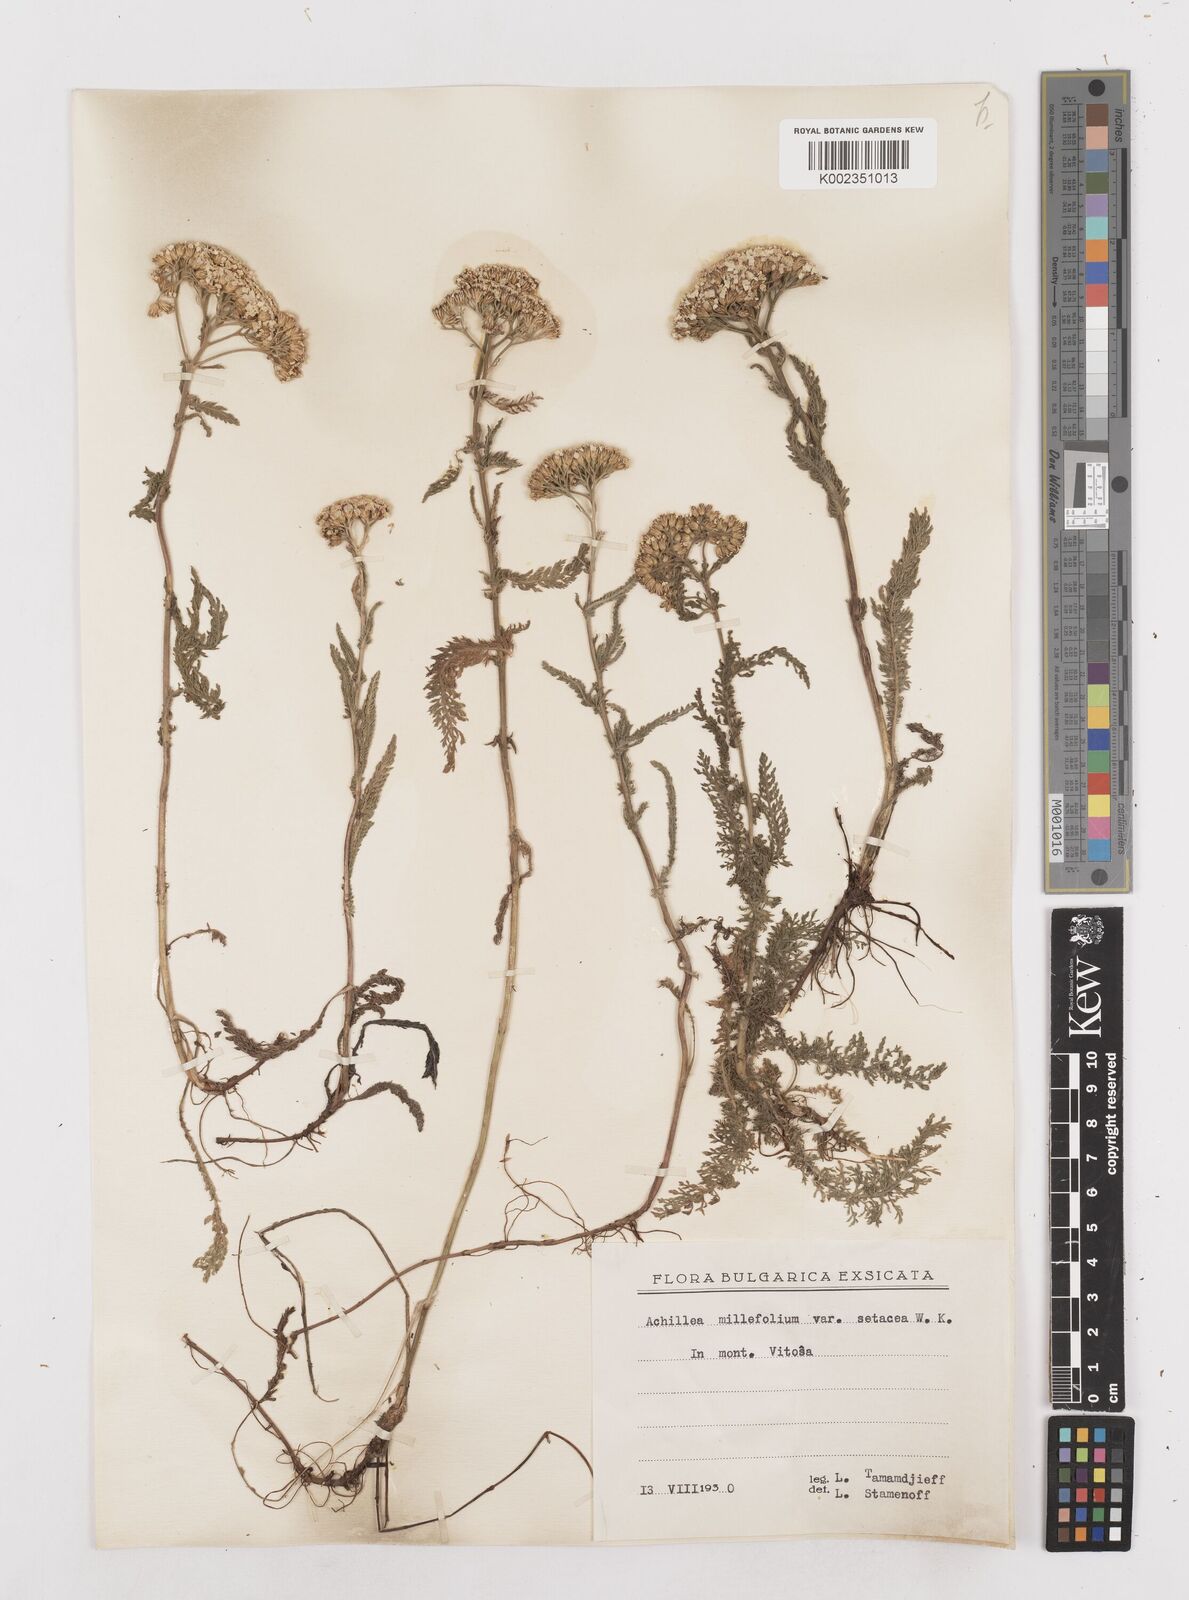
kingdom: Plantae
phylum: Tracheophyta
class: Magnoliopsida
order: Asterales
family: Asteraceae
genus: Achillea
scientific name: Achillea millefolium
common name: Yarrow
